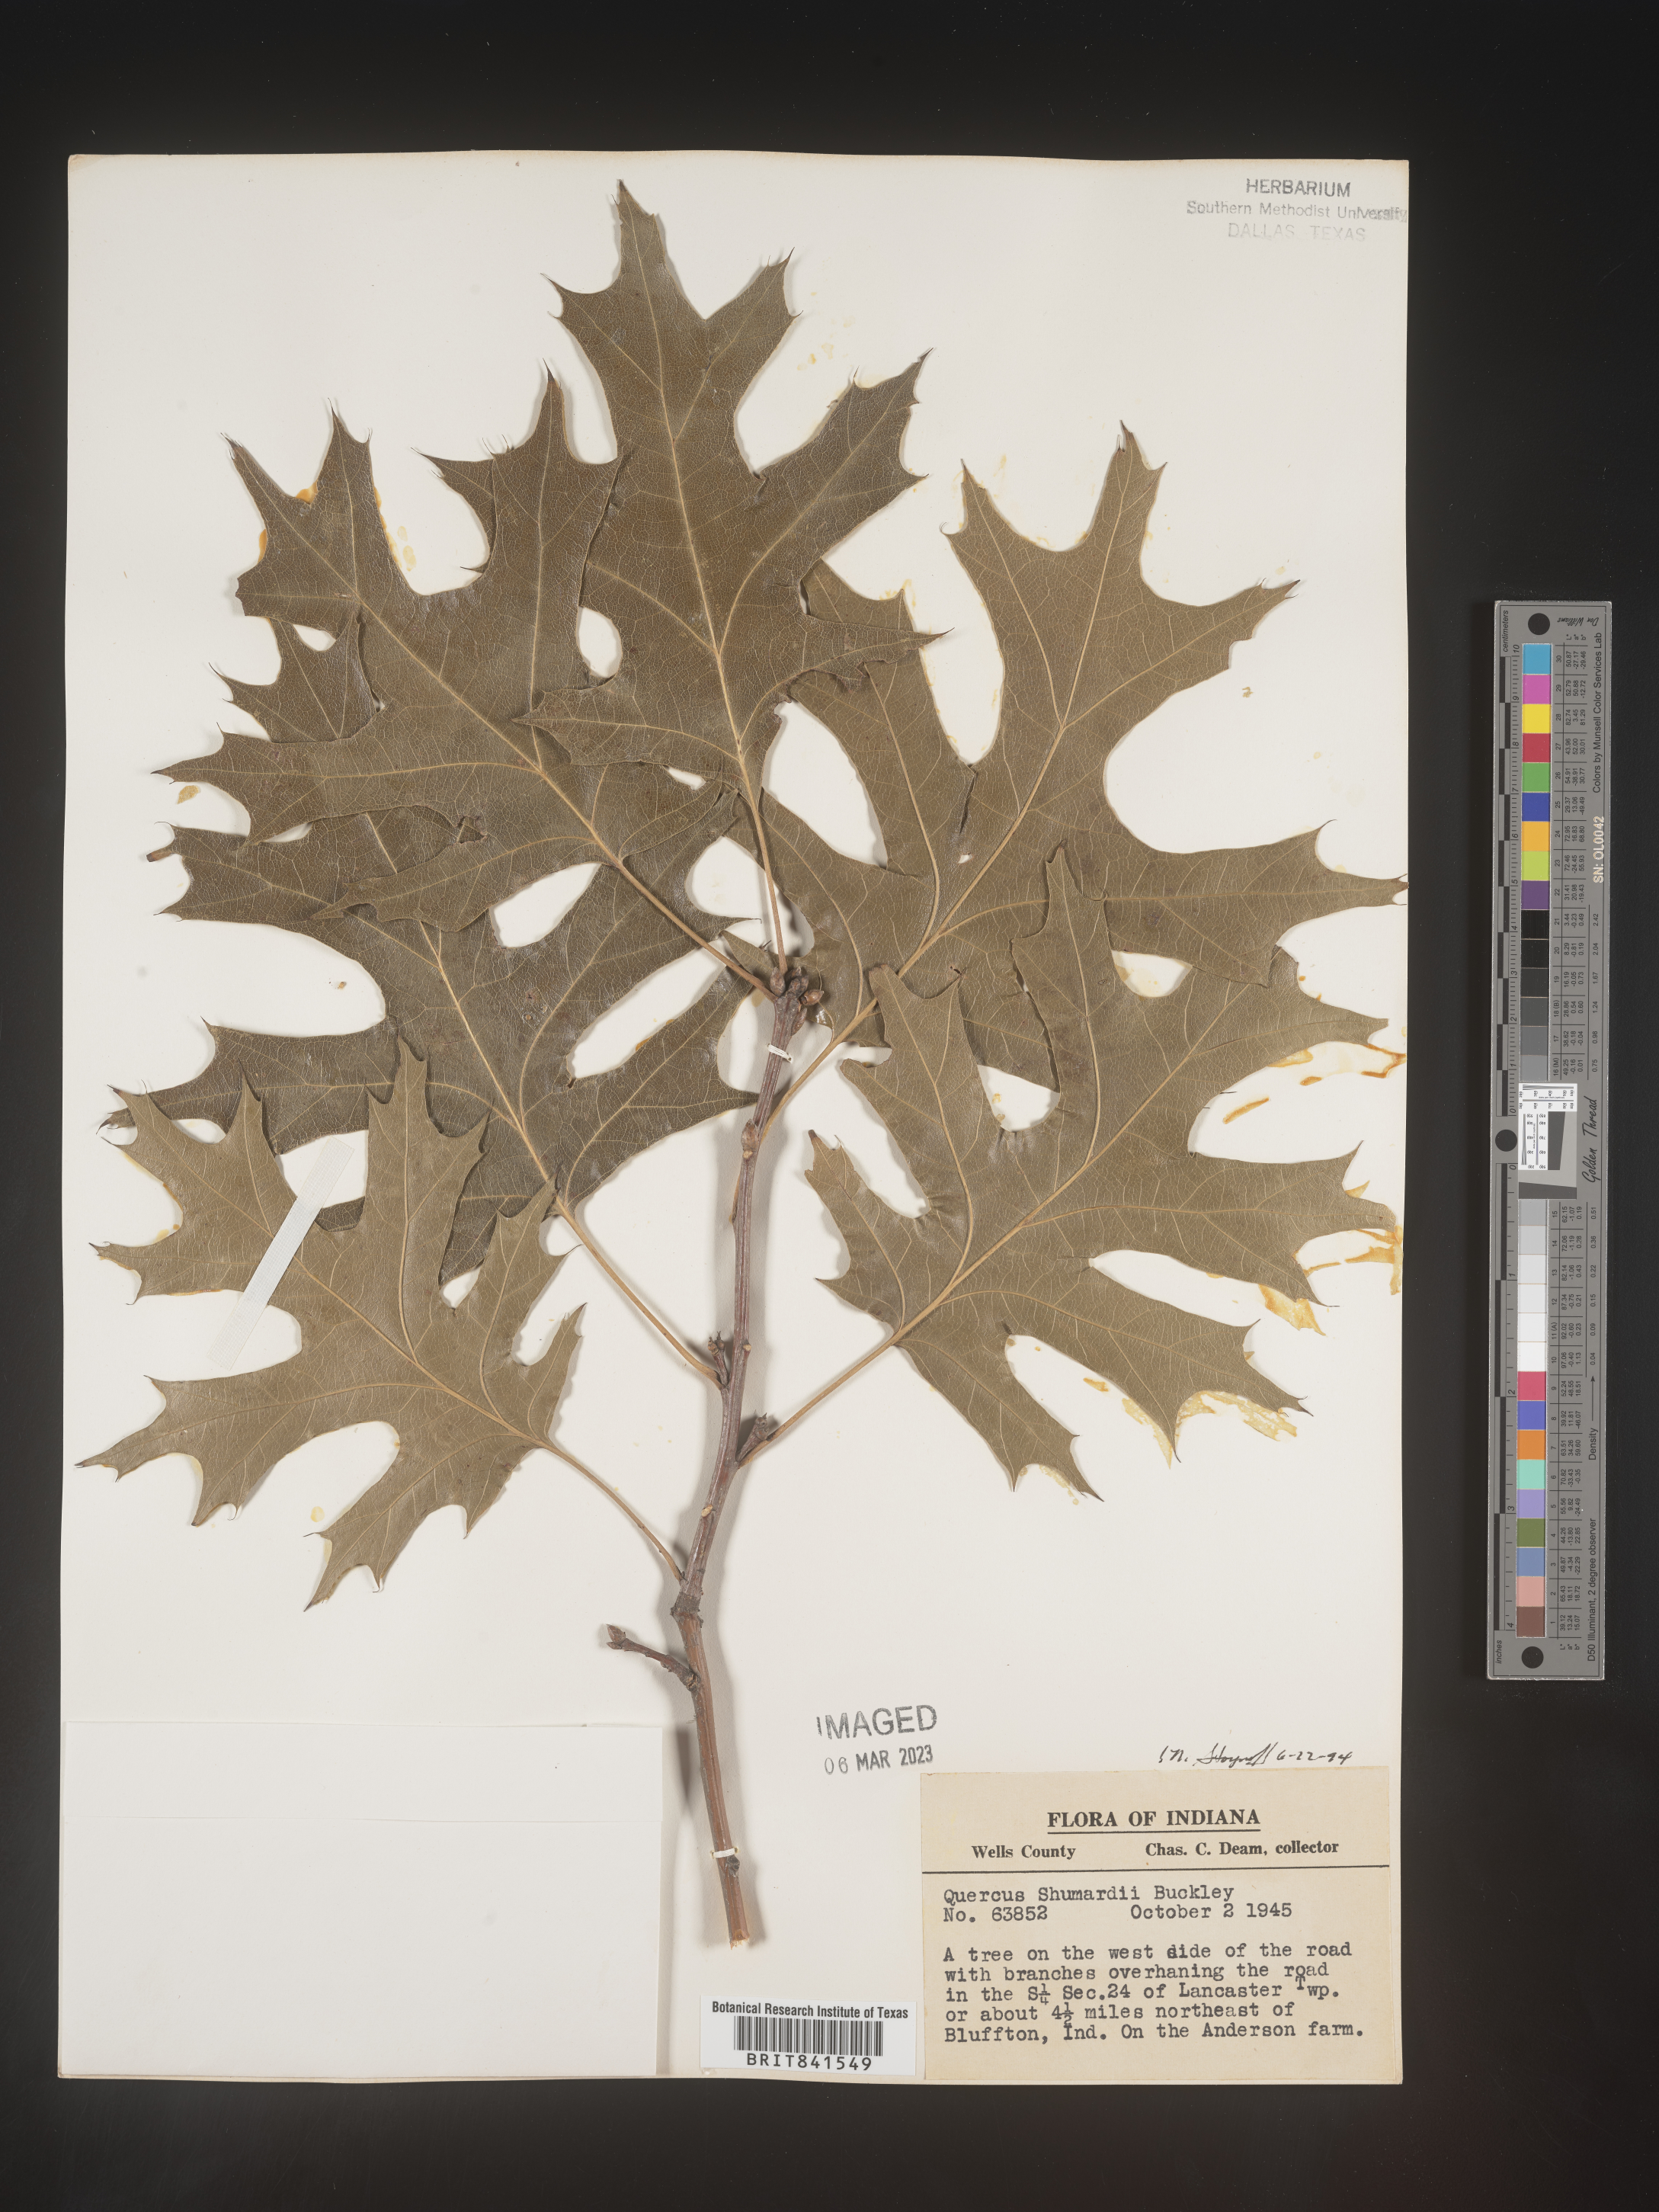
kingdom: Plantae
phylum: Tracheophyta
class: Magnoliopsida
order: Fagales
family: Fagaceae
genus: Quercus
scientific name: Quercus shumardii
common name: Shumard oak
